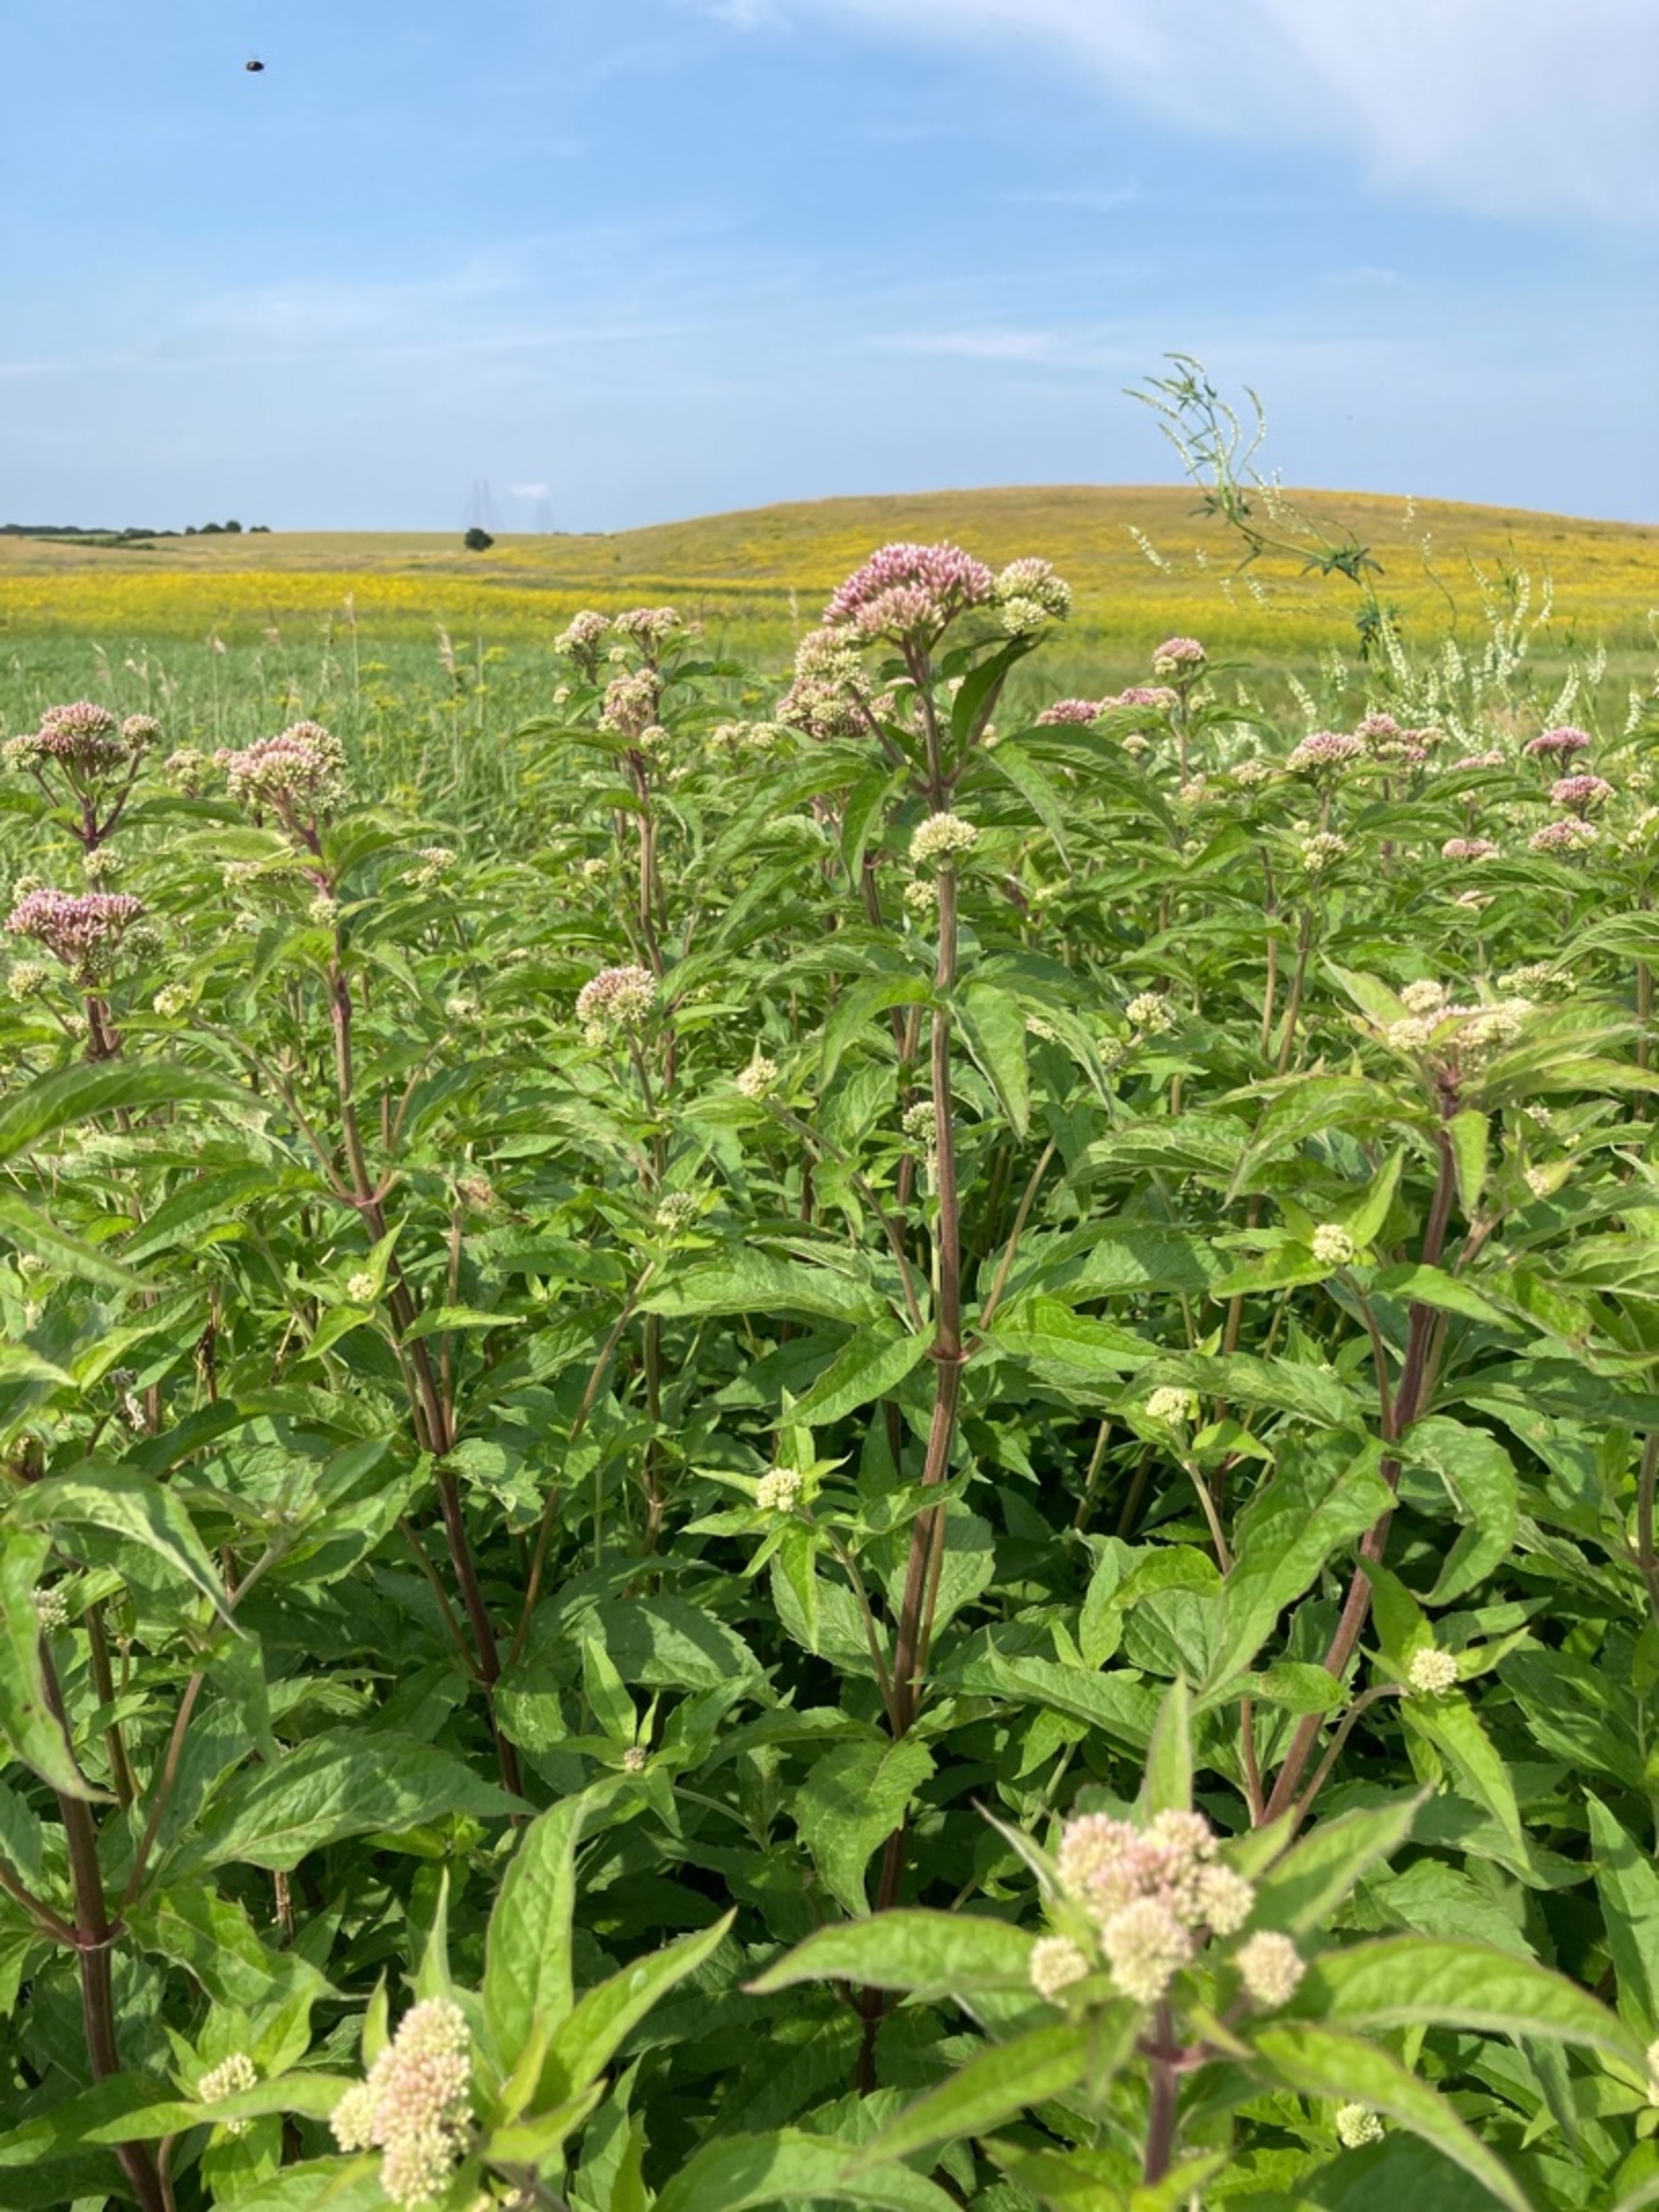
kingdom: Plantae
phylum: Tracheophyta
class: Magnoliopsida
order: Asterales
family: Asteraceae
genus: Eupatorium
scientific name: Eupatorium cannabinum
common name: Hjortetrøst
